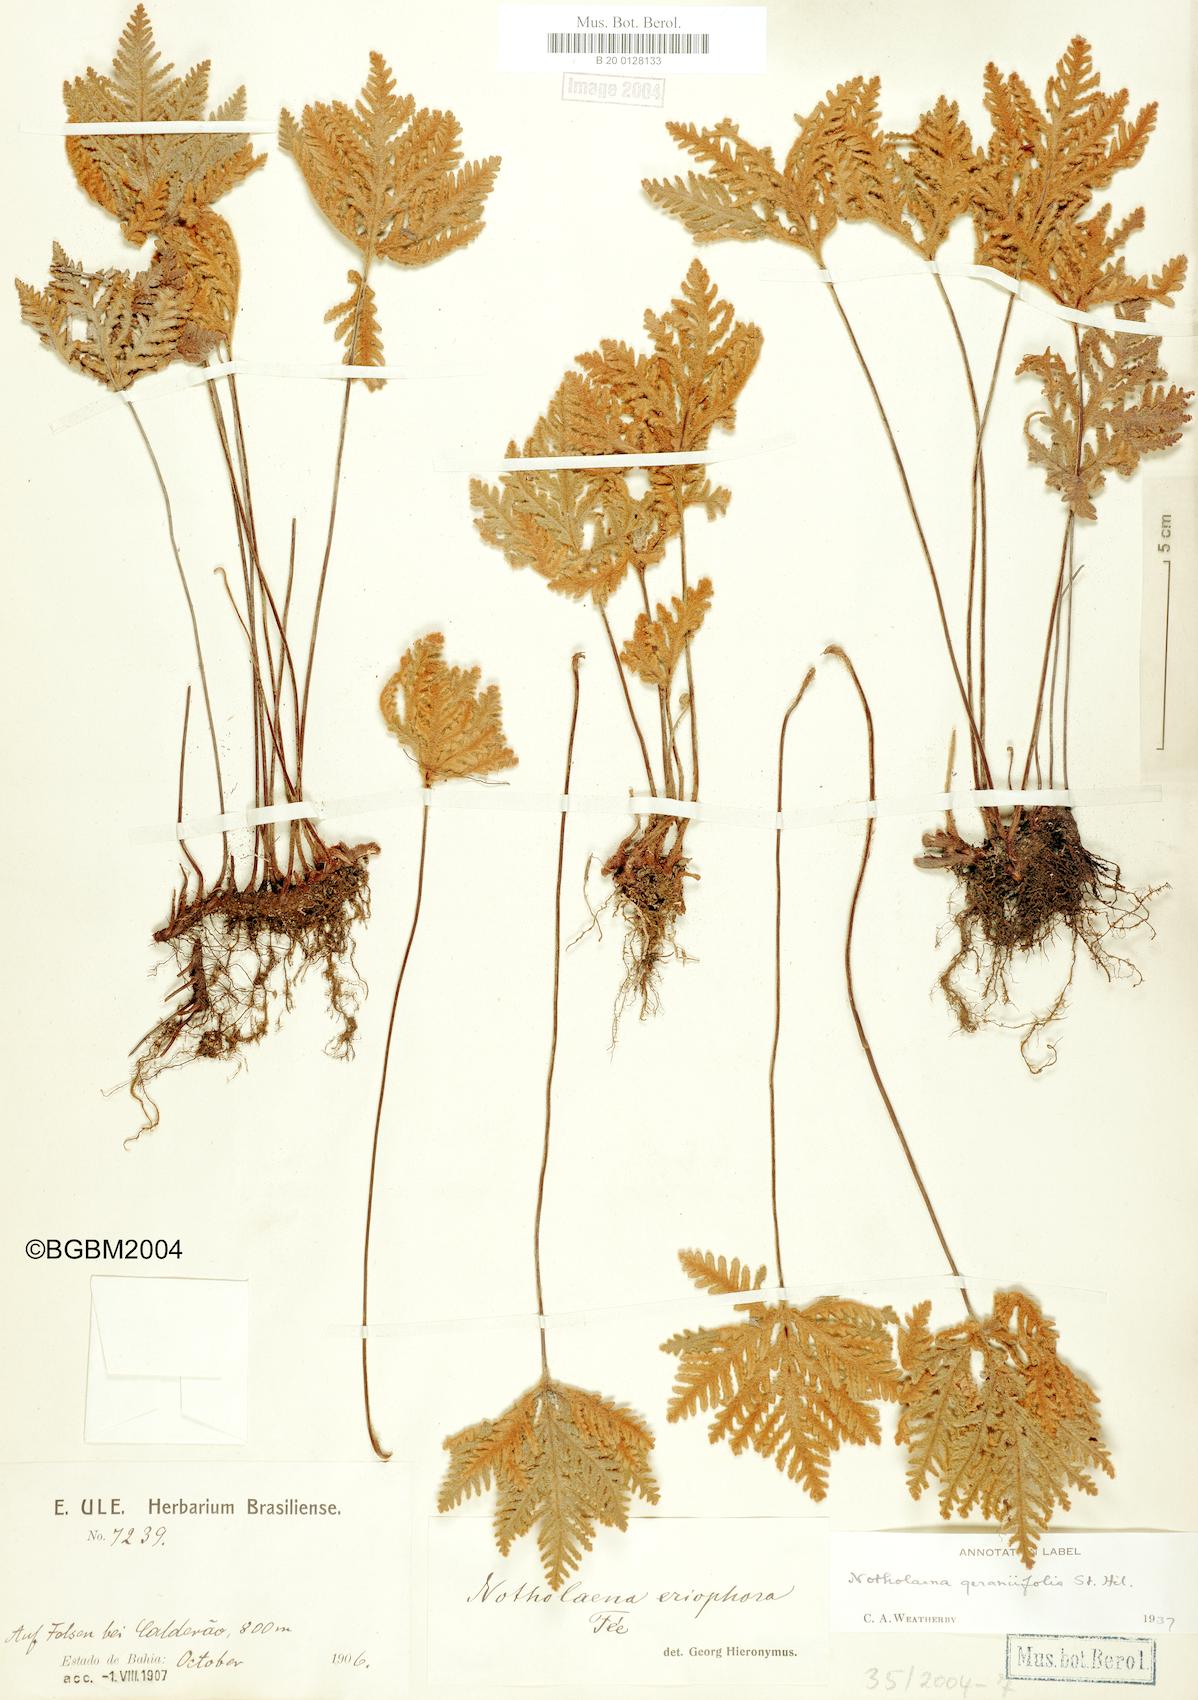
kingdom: Plantae
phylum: Tracheophyta
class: Polypodiopsida
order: Polypodiales
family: Pteridaceae
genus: Mineirella
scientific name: Mineirella eriophora
